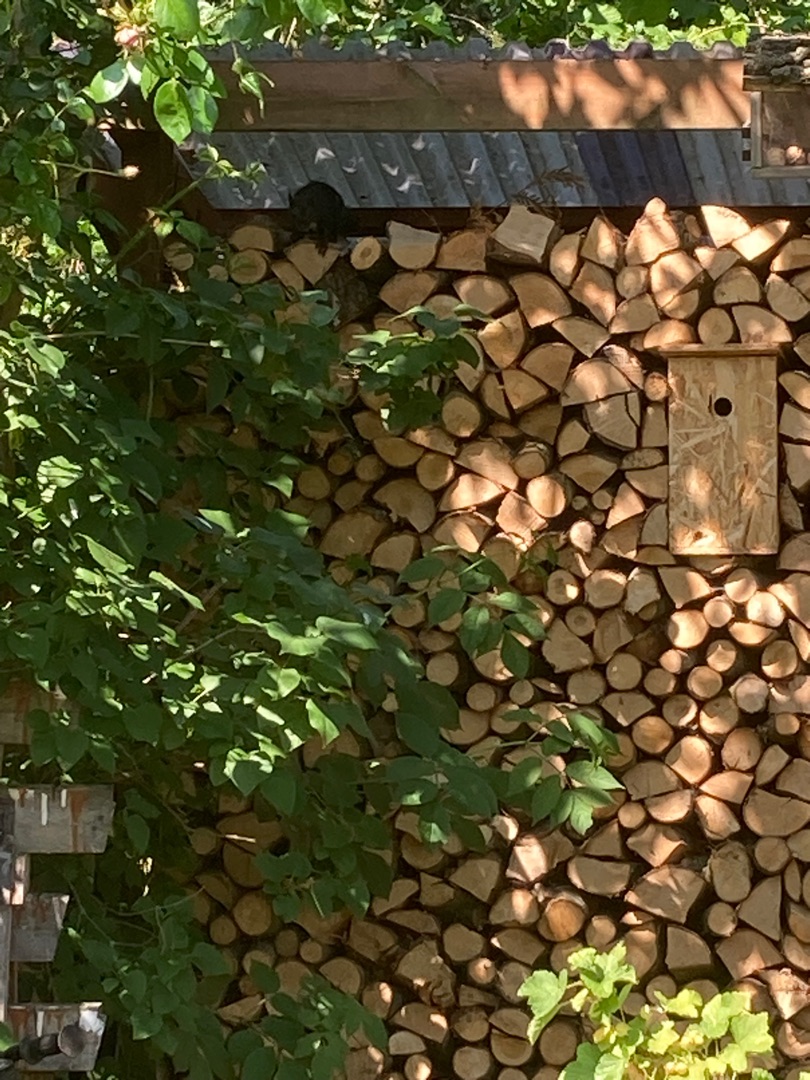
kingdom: Animalia
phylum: Chordata
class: Mammalia
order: Rodentia
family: Sciuridae
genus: Sciurus
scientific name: Sciurus vulgaris
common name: Egern
